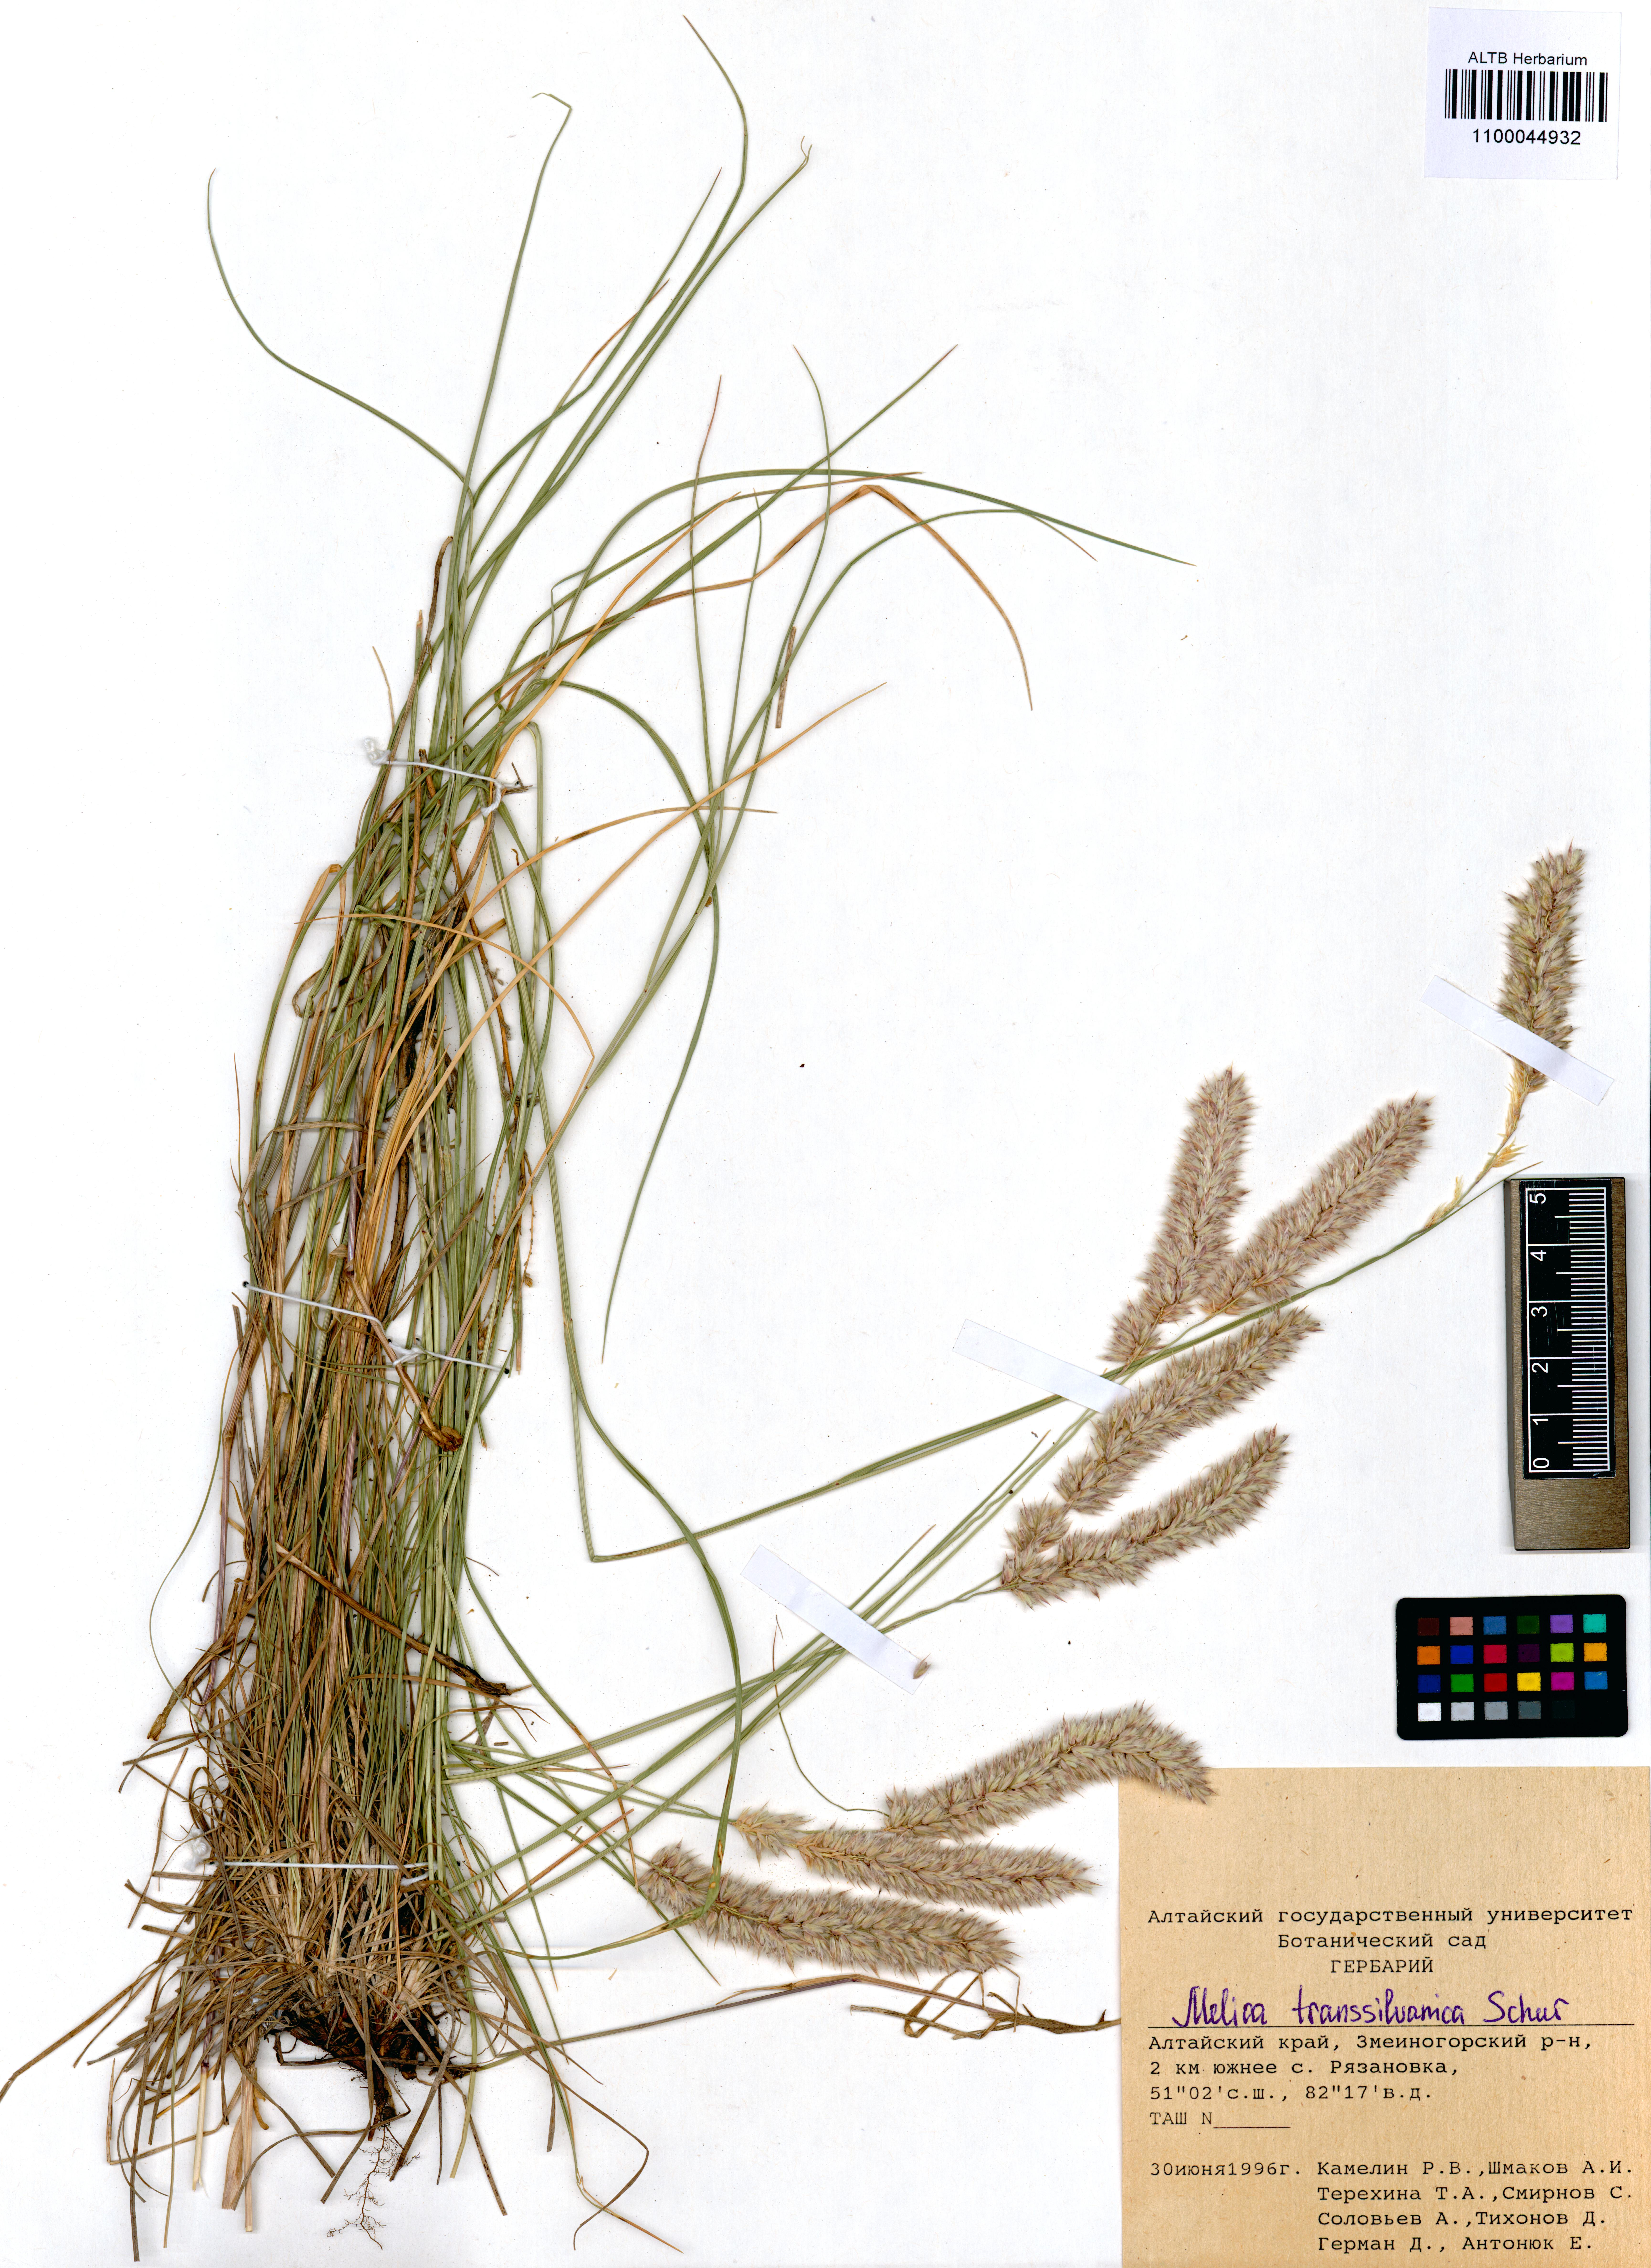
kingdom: Plantae
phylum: Tracheophyta
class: Liliopsida
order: Poales
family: Poaceae
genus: Melica
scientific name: Melica transsilvanica
